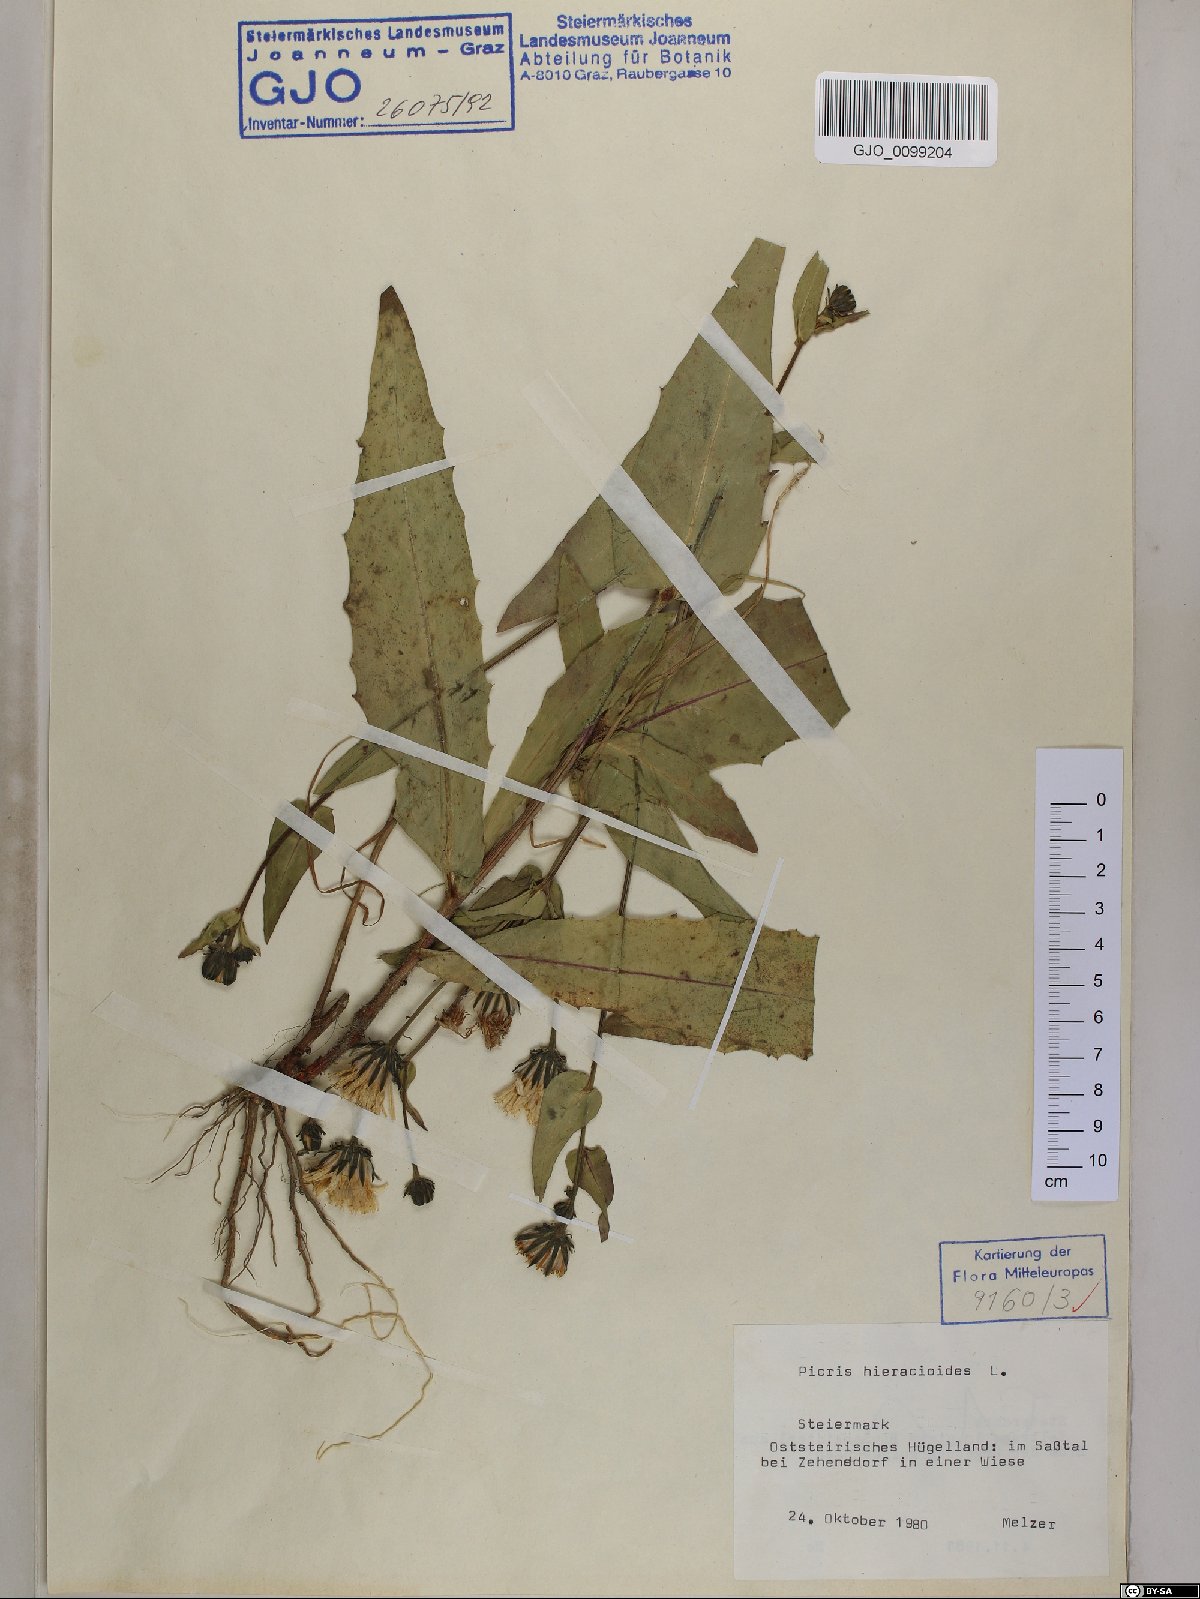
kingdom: Plantae
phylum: Tracheophyta
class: Magnoliopsida
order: Asterales
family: Asteraceae
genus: Picris
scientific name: Picris hieracioides
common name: Hawkweed oxtongue
